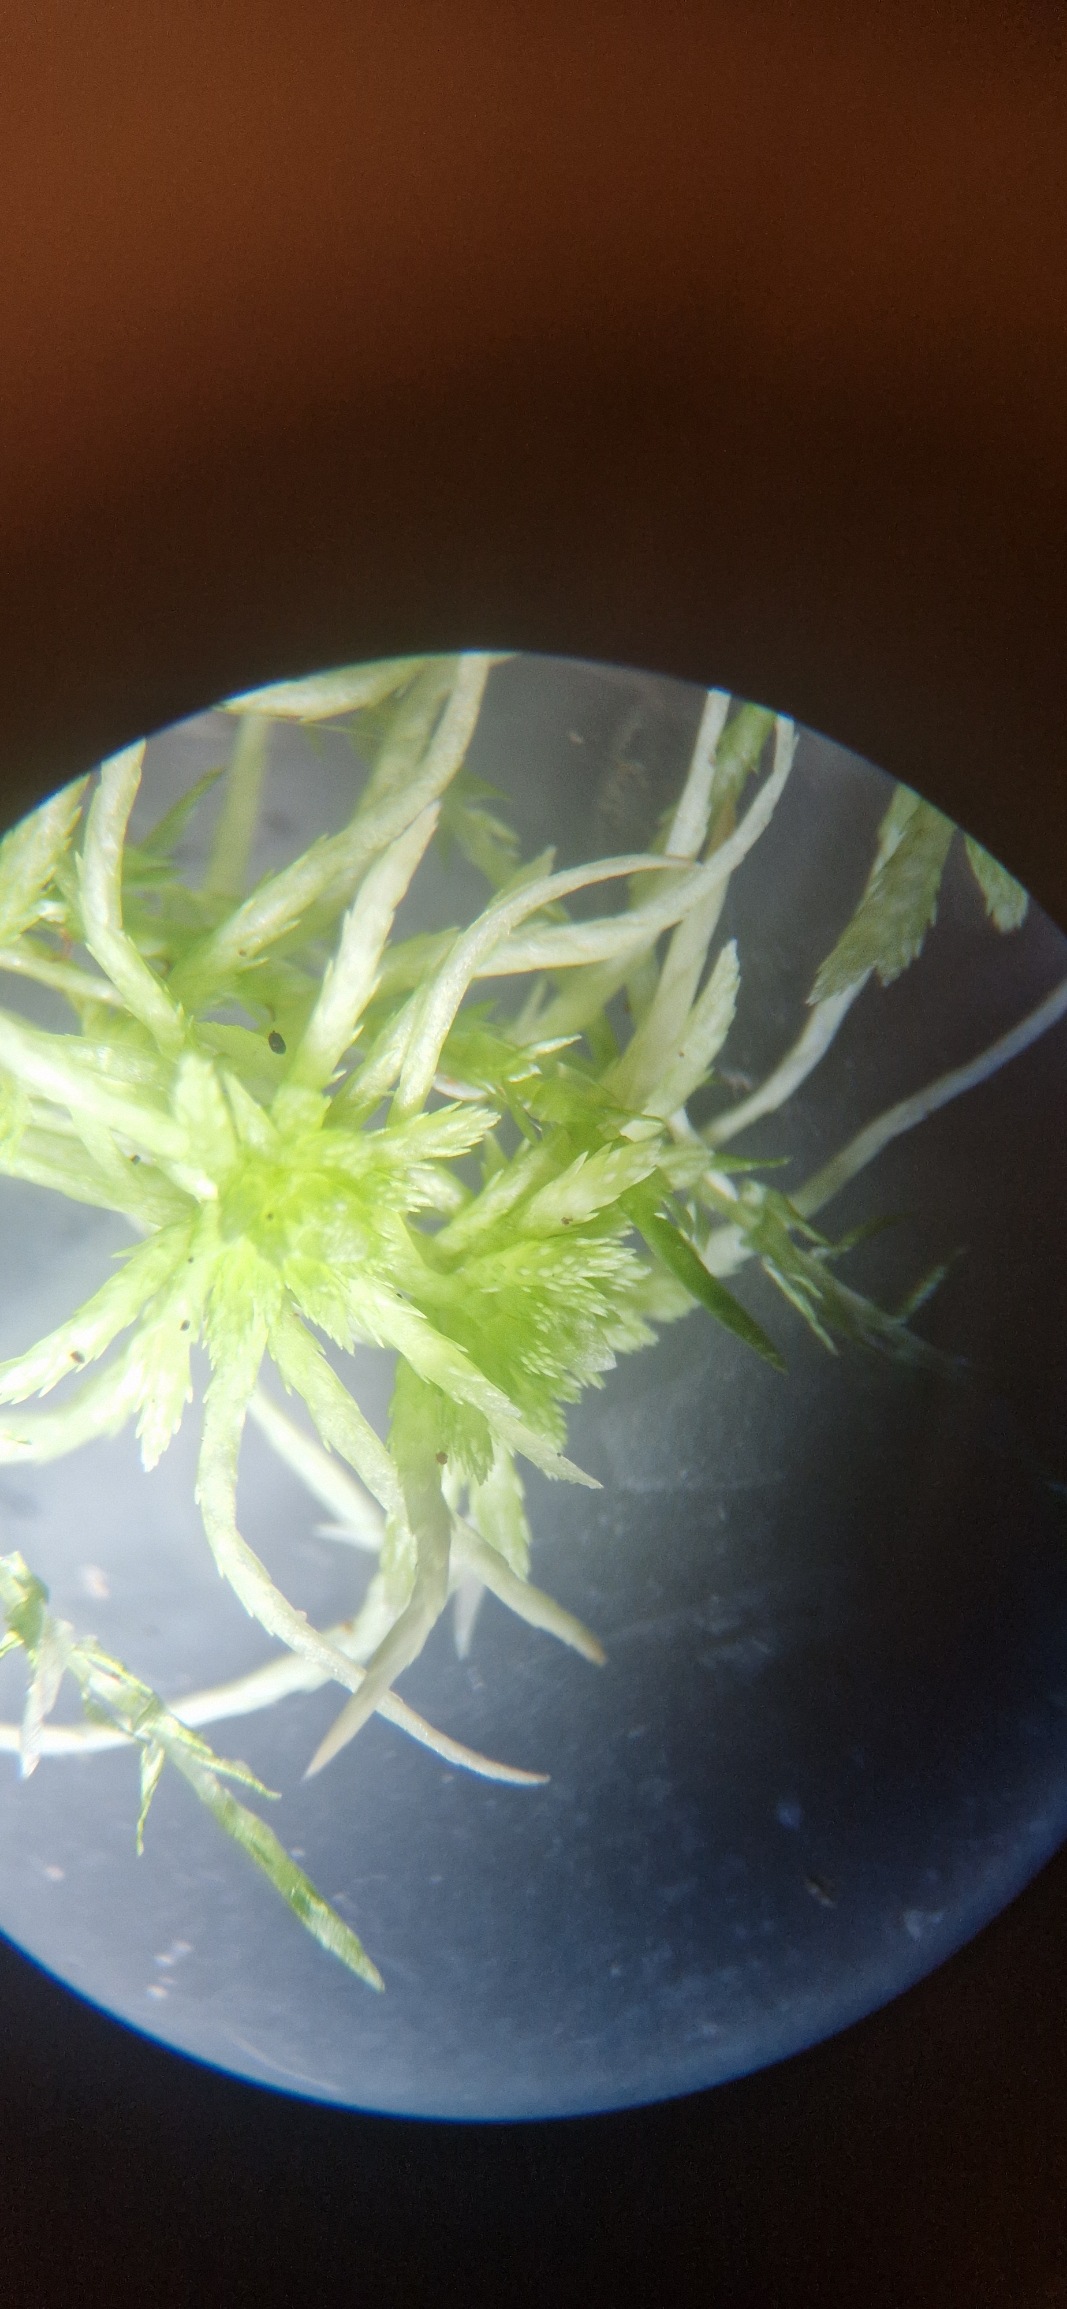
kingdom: Plantae
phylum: Bryophyta
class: Sphagnopsida
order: Sphagnales
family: Sphagnaceae
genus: Sphagnum
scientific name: Sphagnum fimbriatum
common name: Frynset tørvemos
